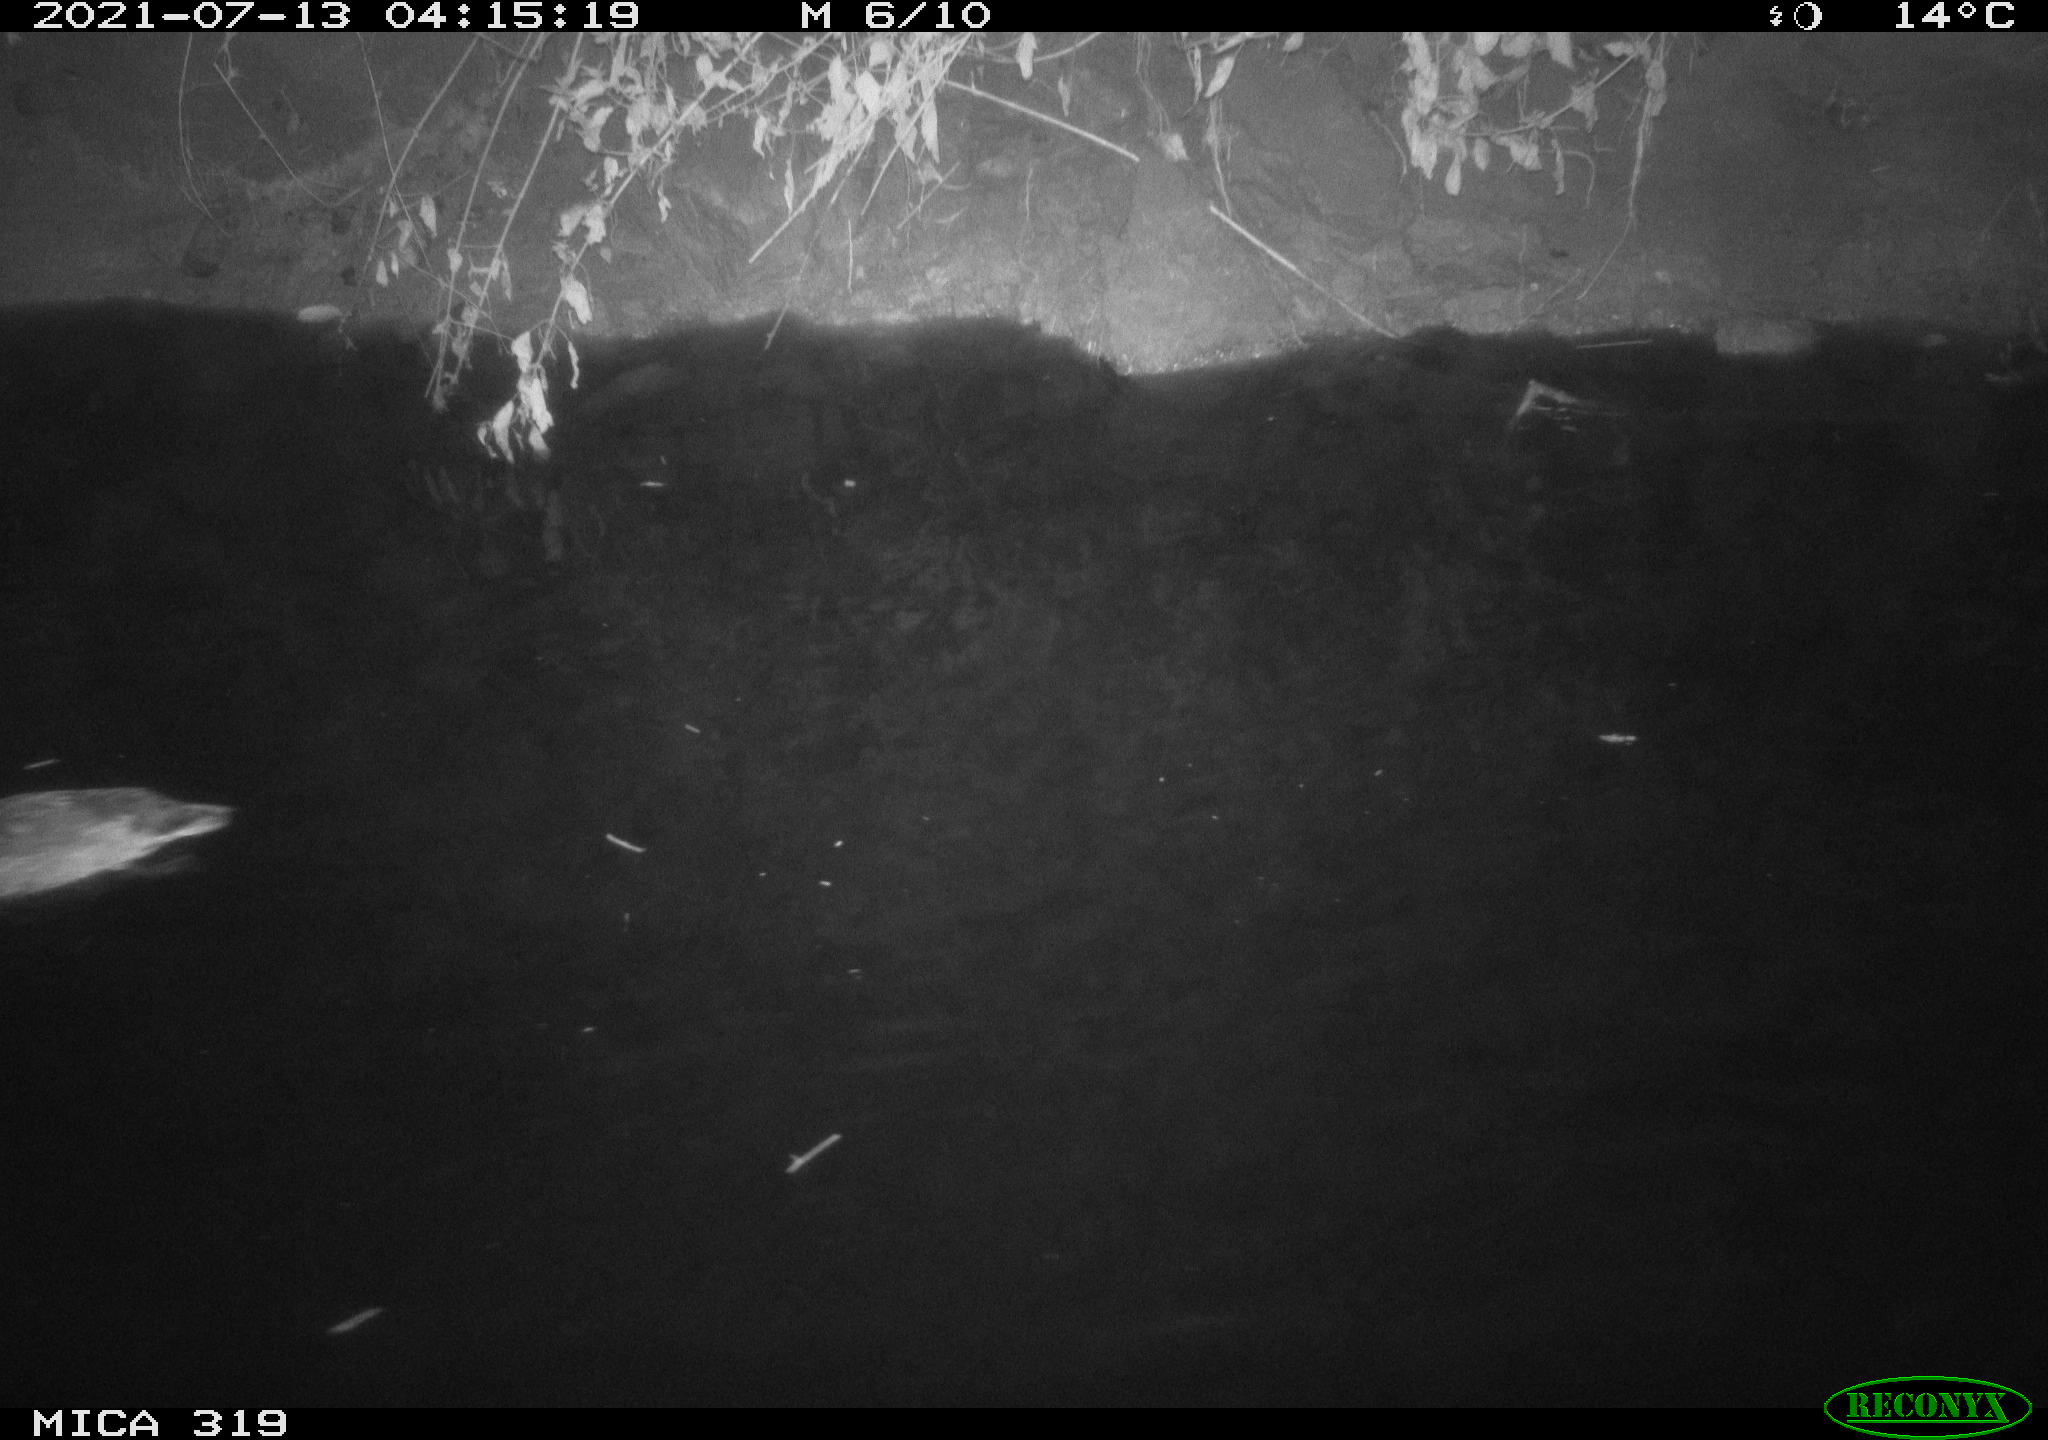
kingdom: Animalia
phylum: Chordata
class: Aves
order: Anseriformes
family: Anatidae
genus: Anas
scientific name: Anas platyrhynchos
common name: Mallard
